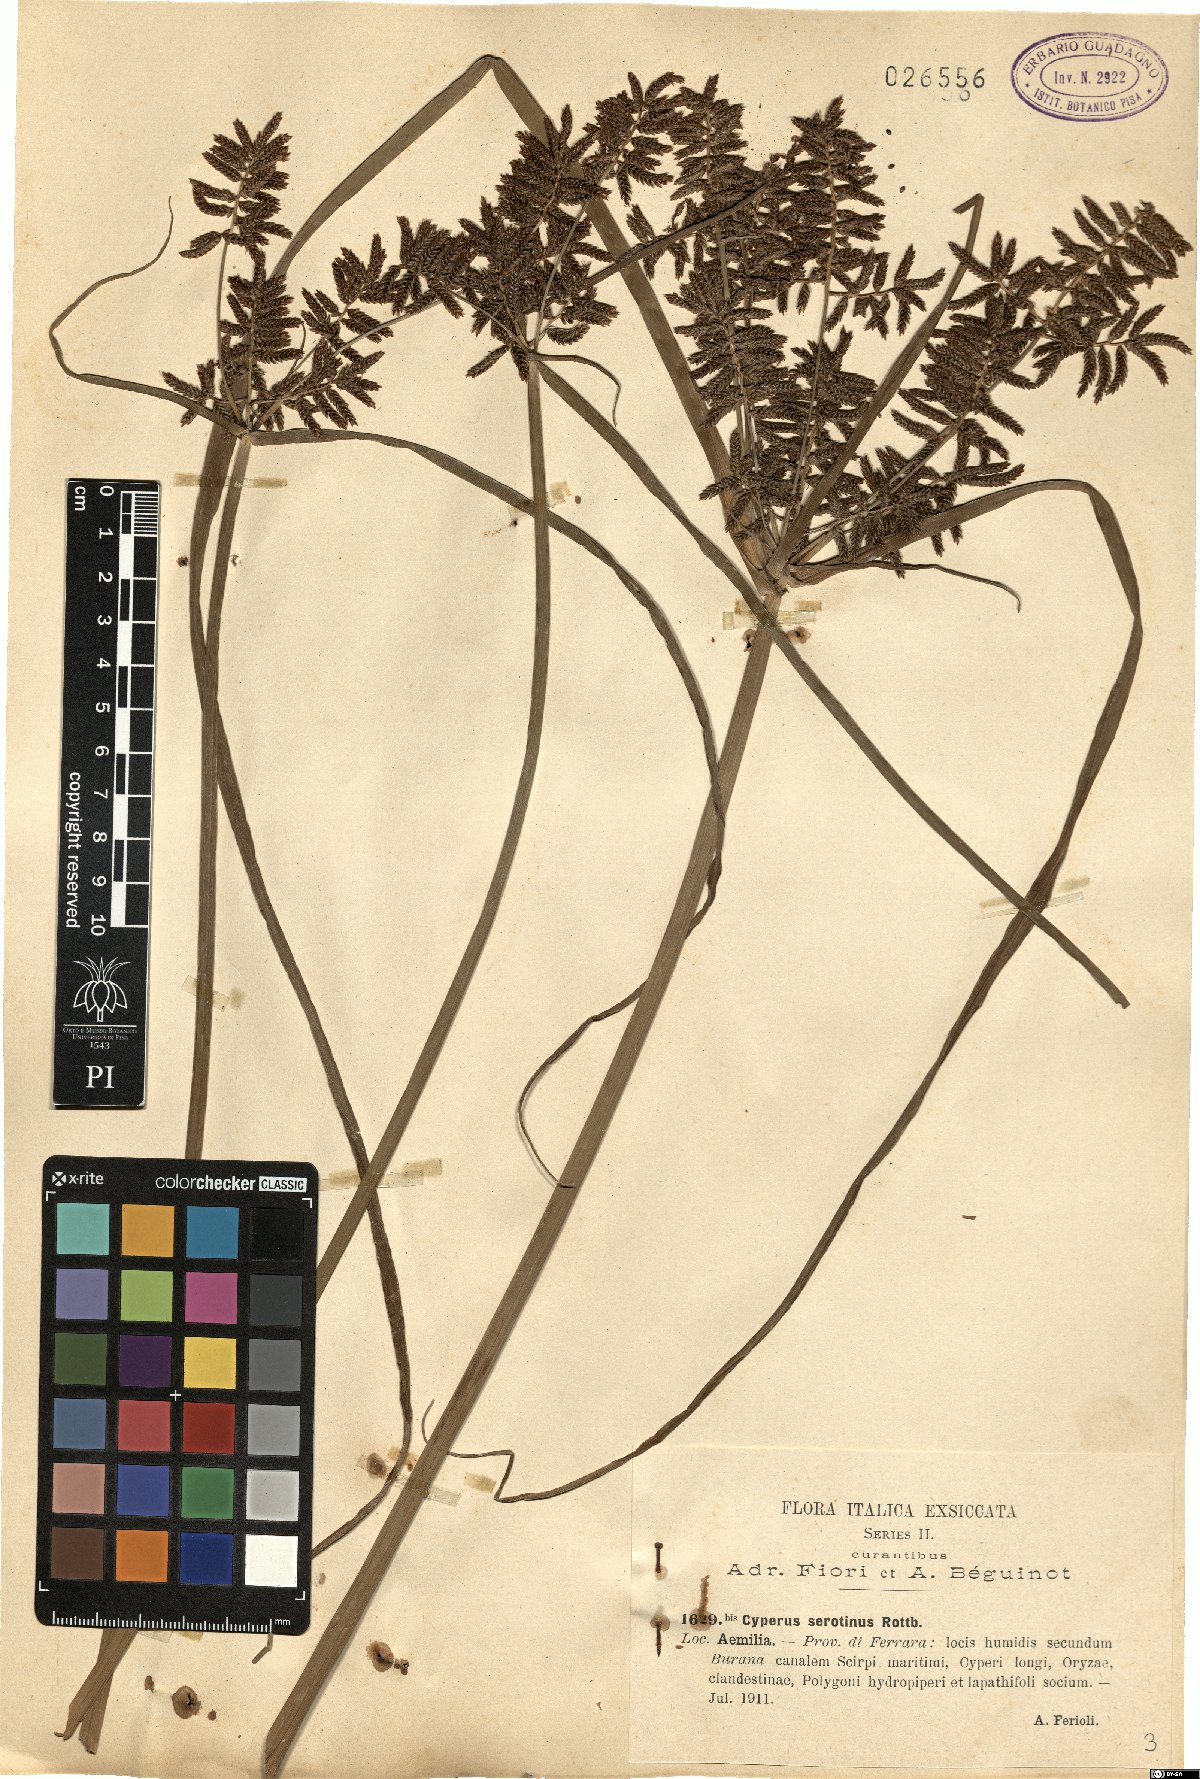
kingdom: Plantae
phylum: Tracheophyta
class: Liliopsida
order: Poales
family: Cyperaceae
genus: Cyperus
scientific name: Cyperus serotinus
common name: Tidalmarsh flatsedge
